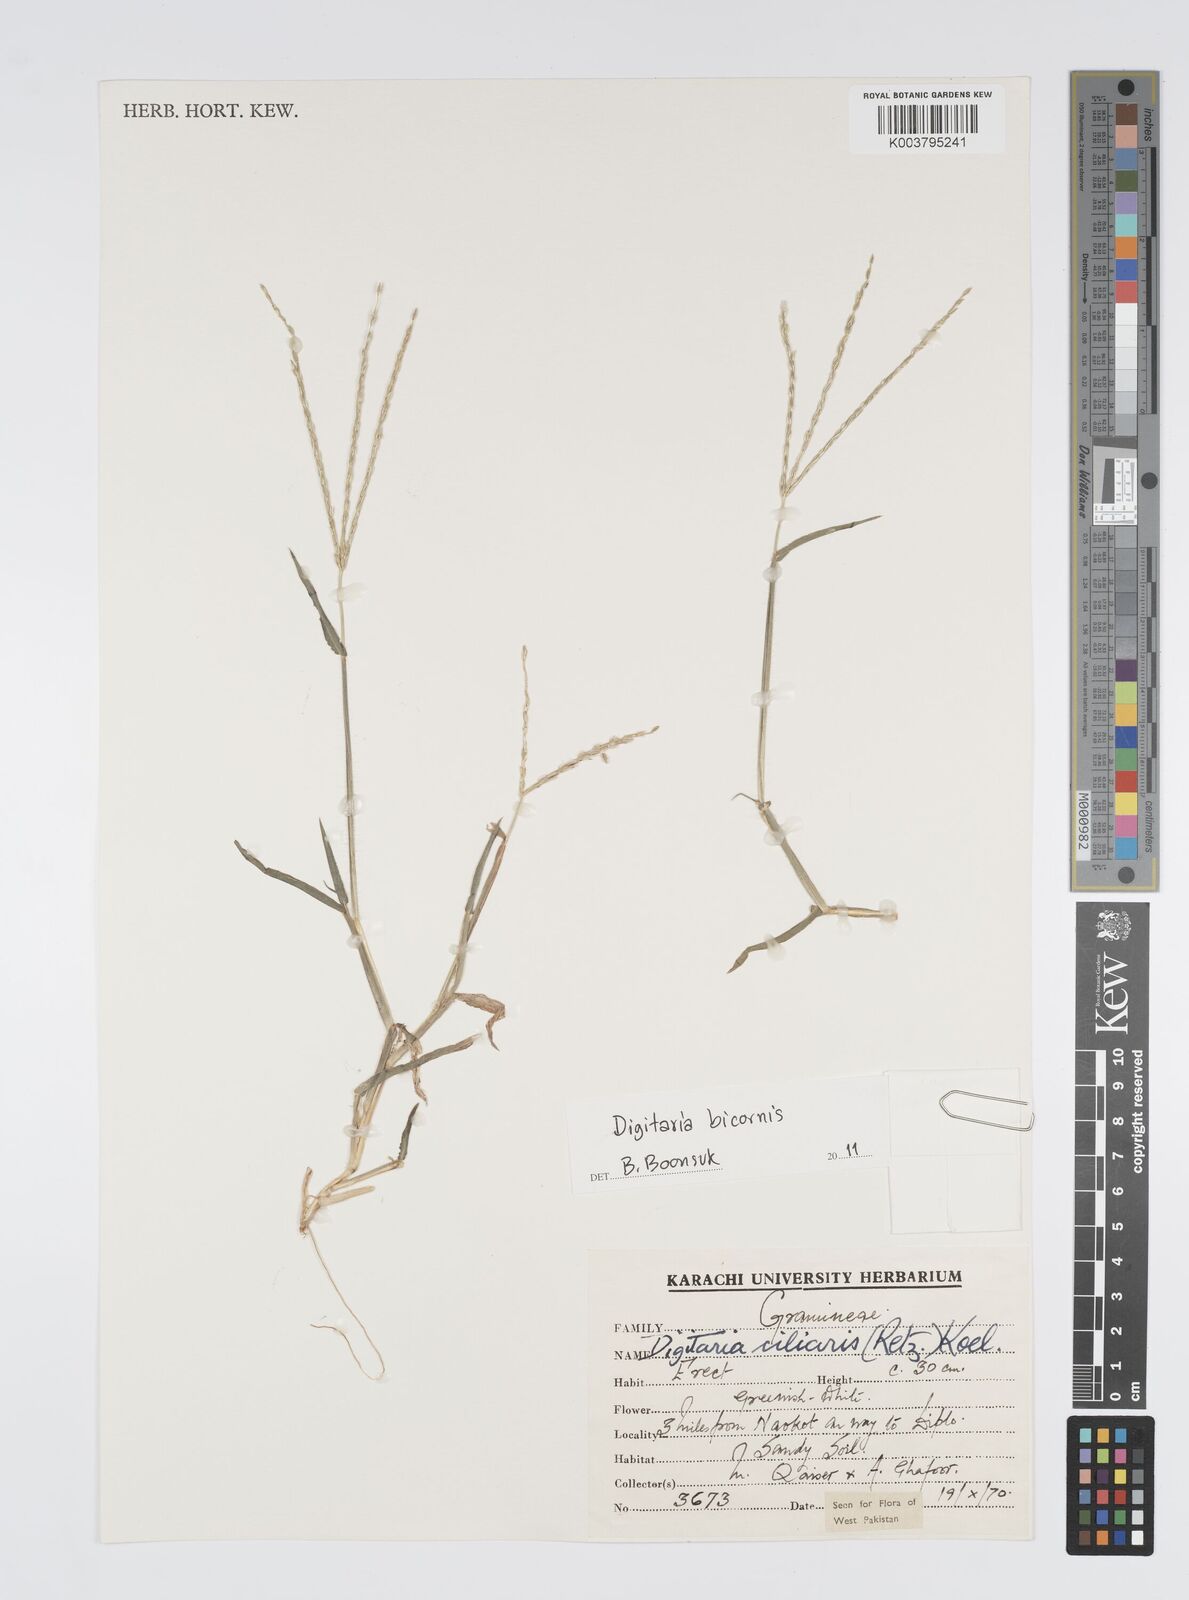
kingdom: Plantae
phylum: Tracheophyta
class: Liliopsida
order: Poales
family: Poaceae
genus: Digitaria
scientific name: Digitaria ciliaris
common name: Tropical finger-grass
